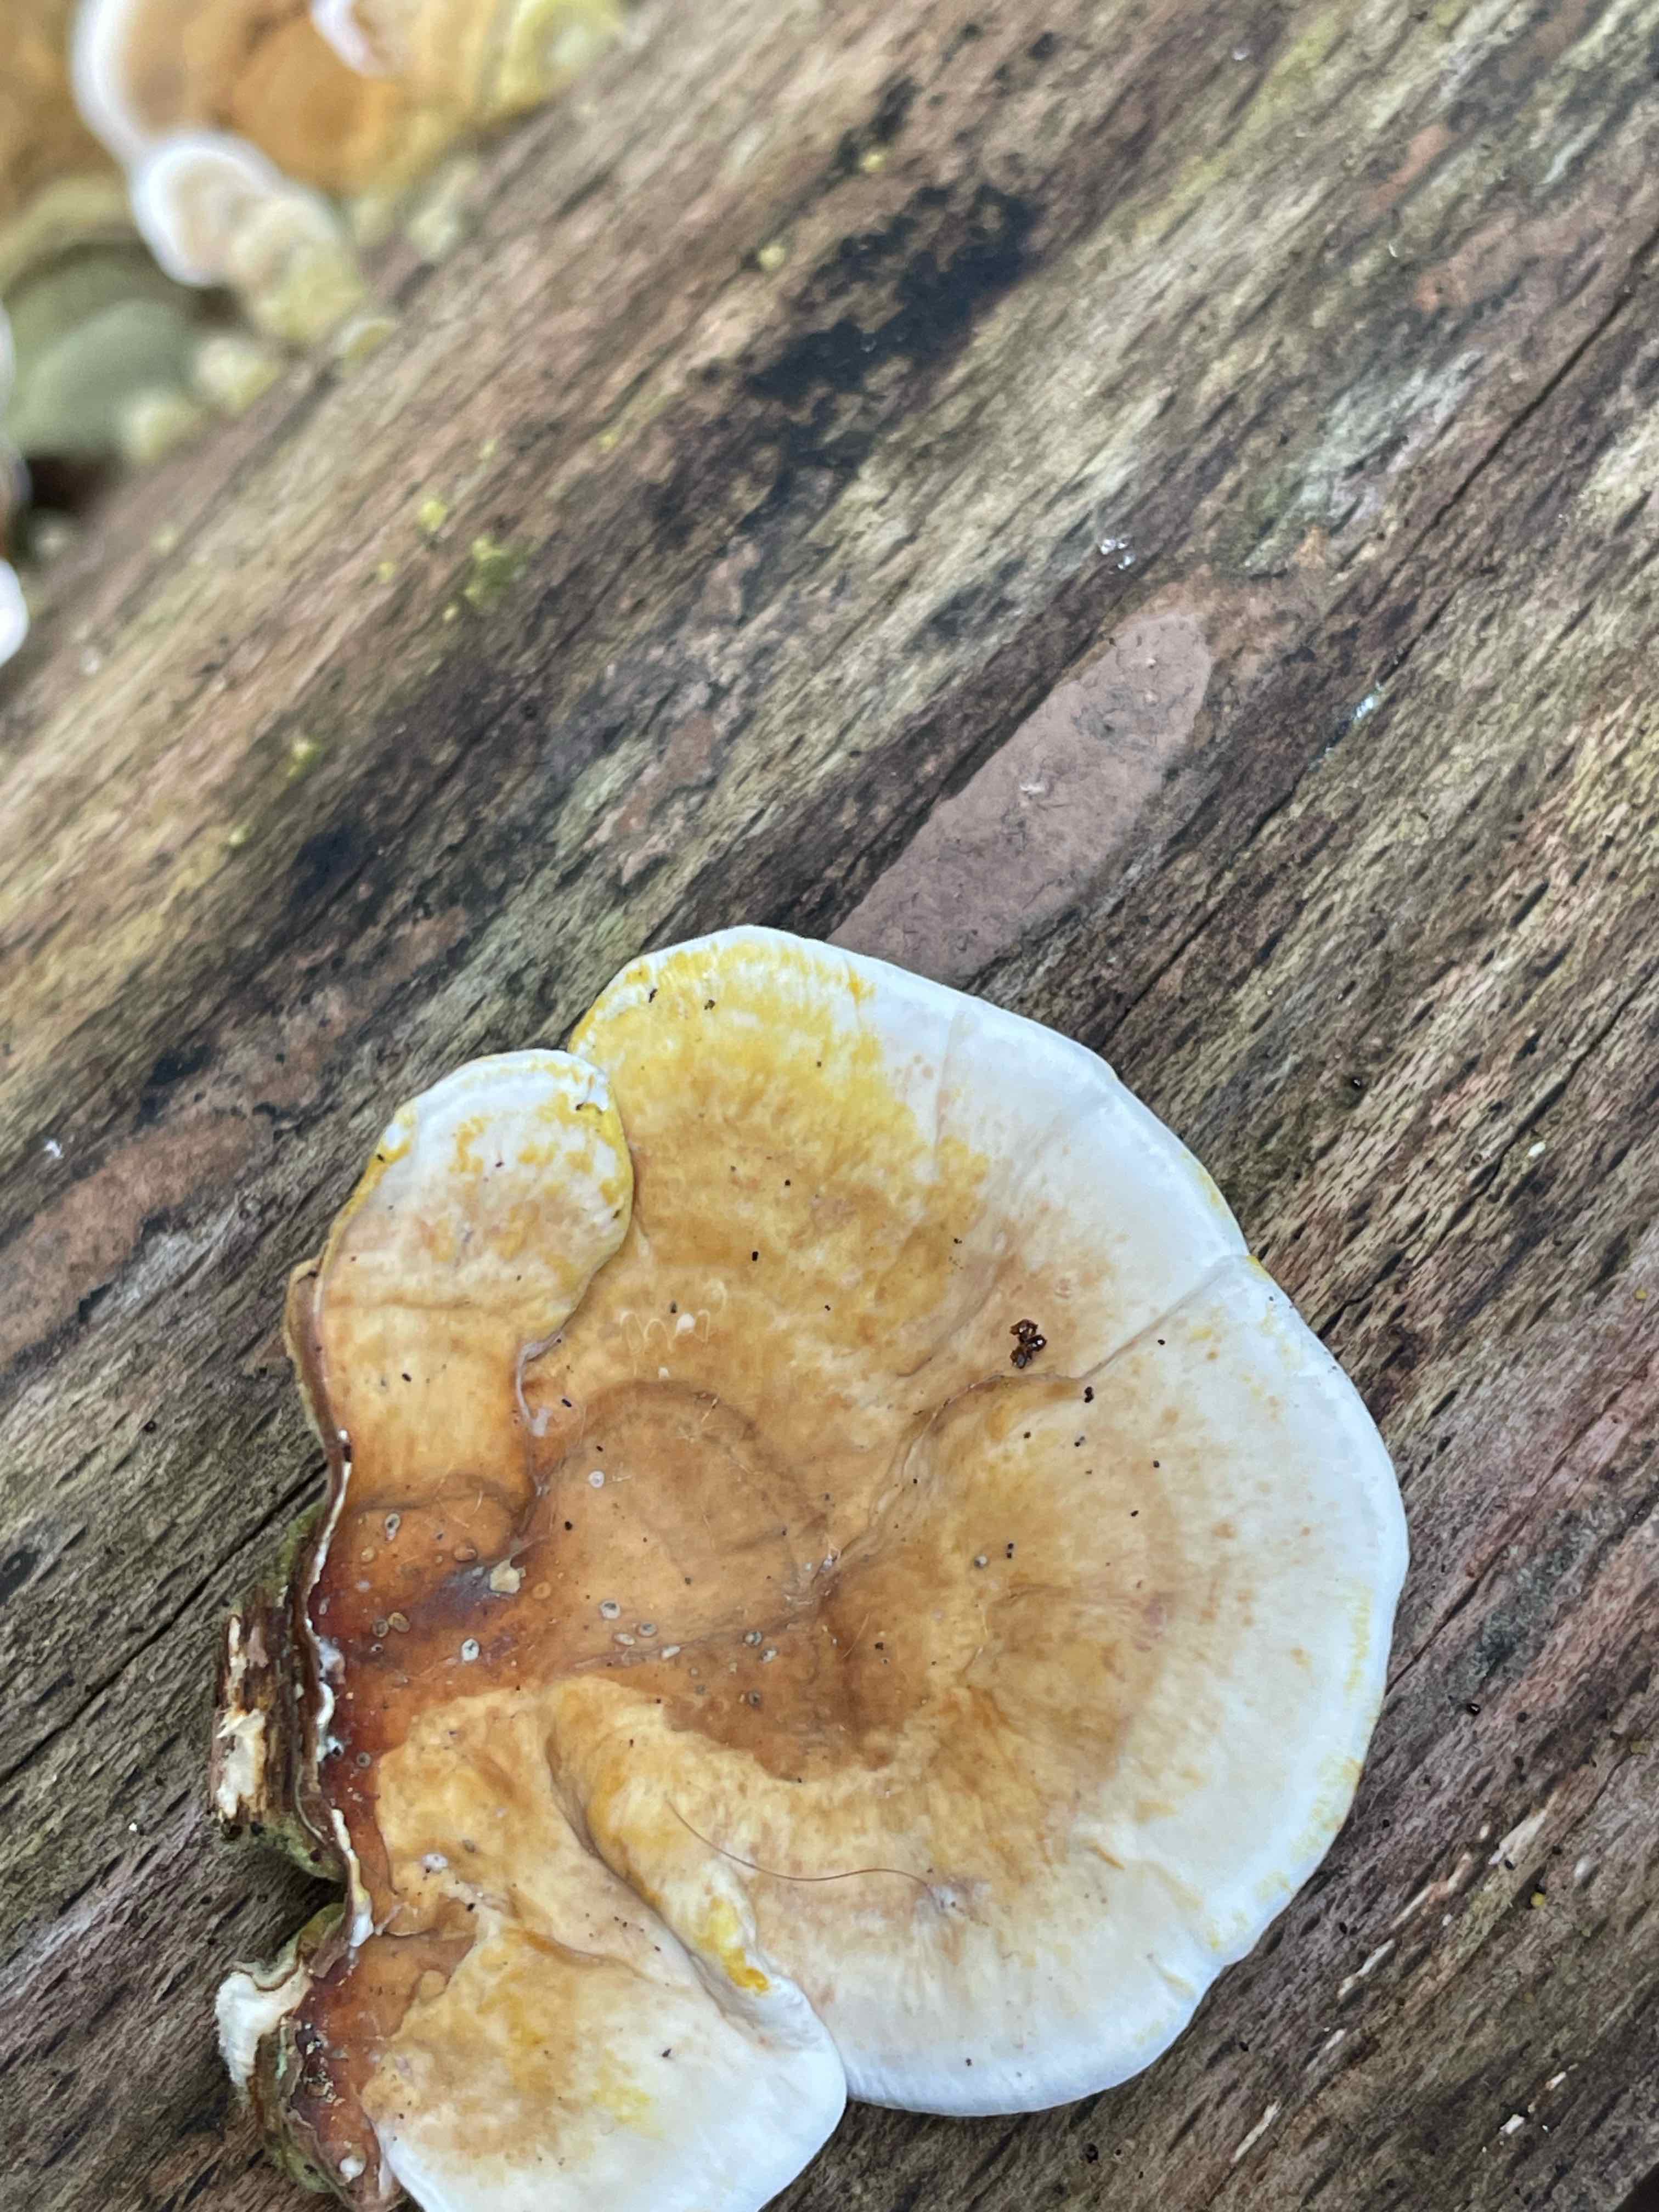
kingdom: Fungi
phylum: Basidiomycota
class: Agaricomycetes
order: Russulales
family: Stereaceae
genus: Stereum
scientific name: Stereum subtomentosum
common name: smuk lædersvamp
